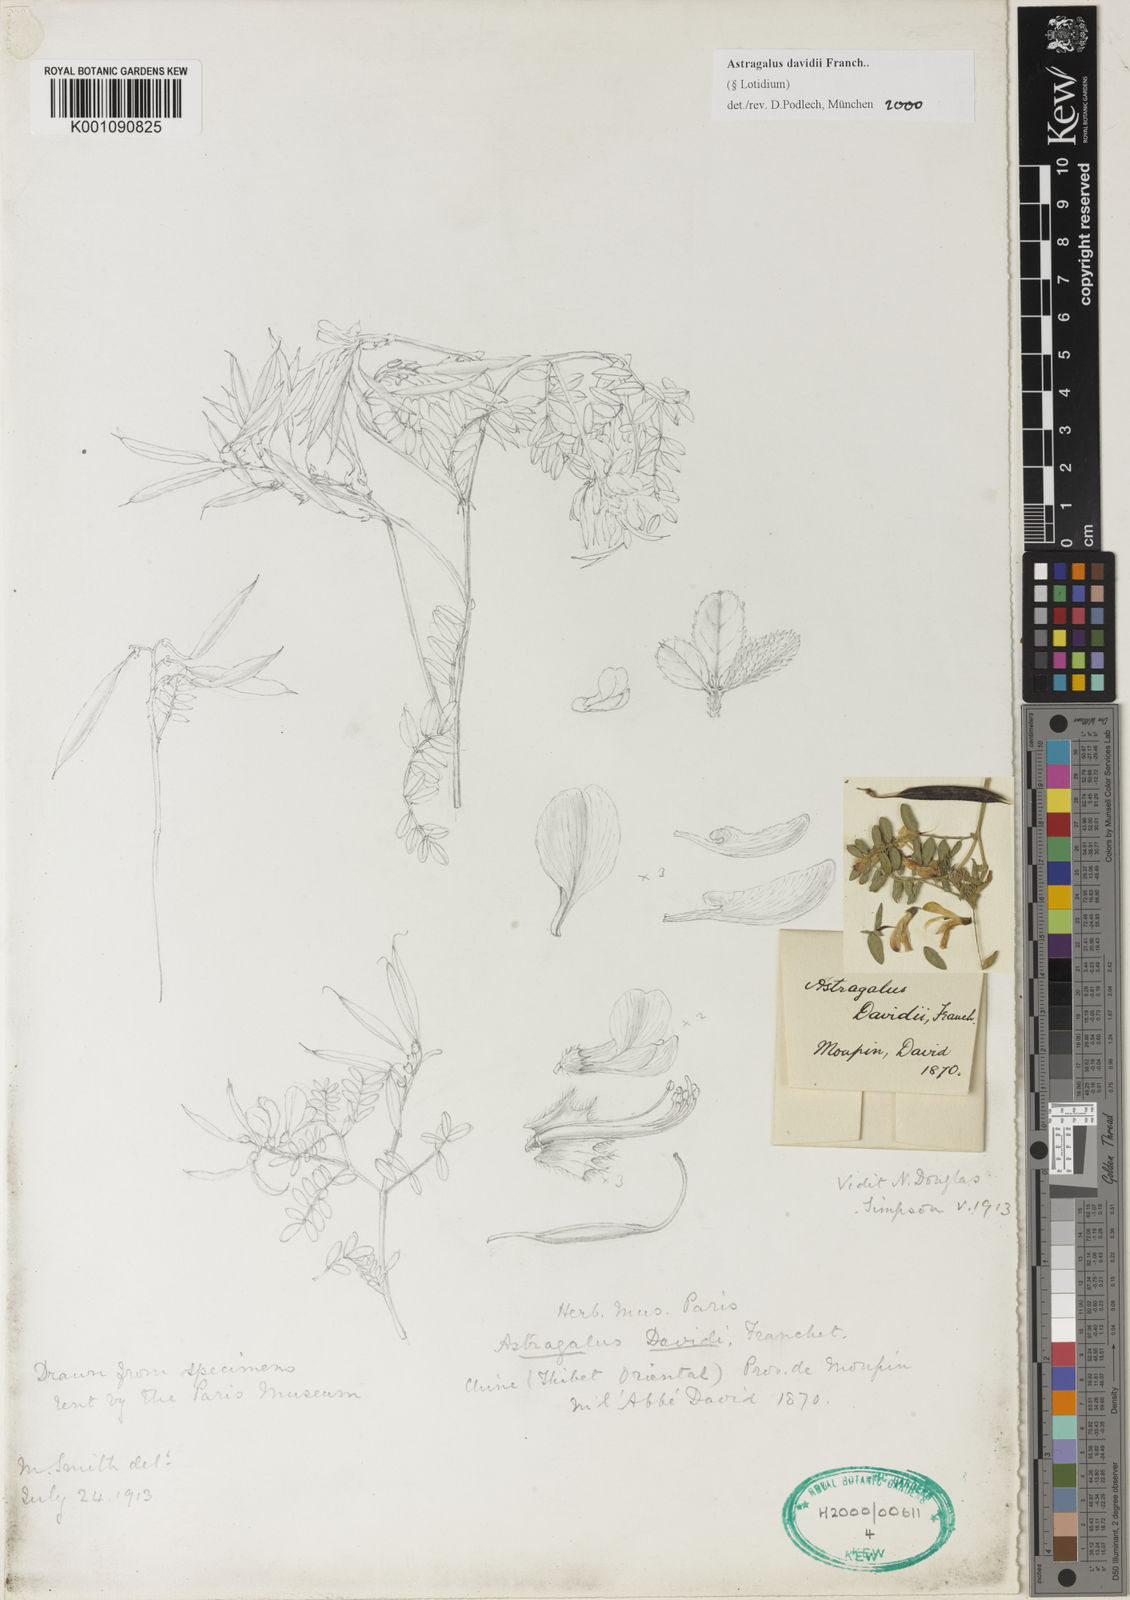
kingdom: Plantae
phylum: Tracheophyta
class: Magnoliopsida
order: Fabales
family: Fabaceae
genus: Astragalus
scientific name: Astragalus
